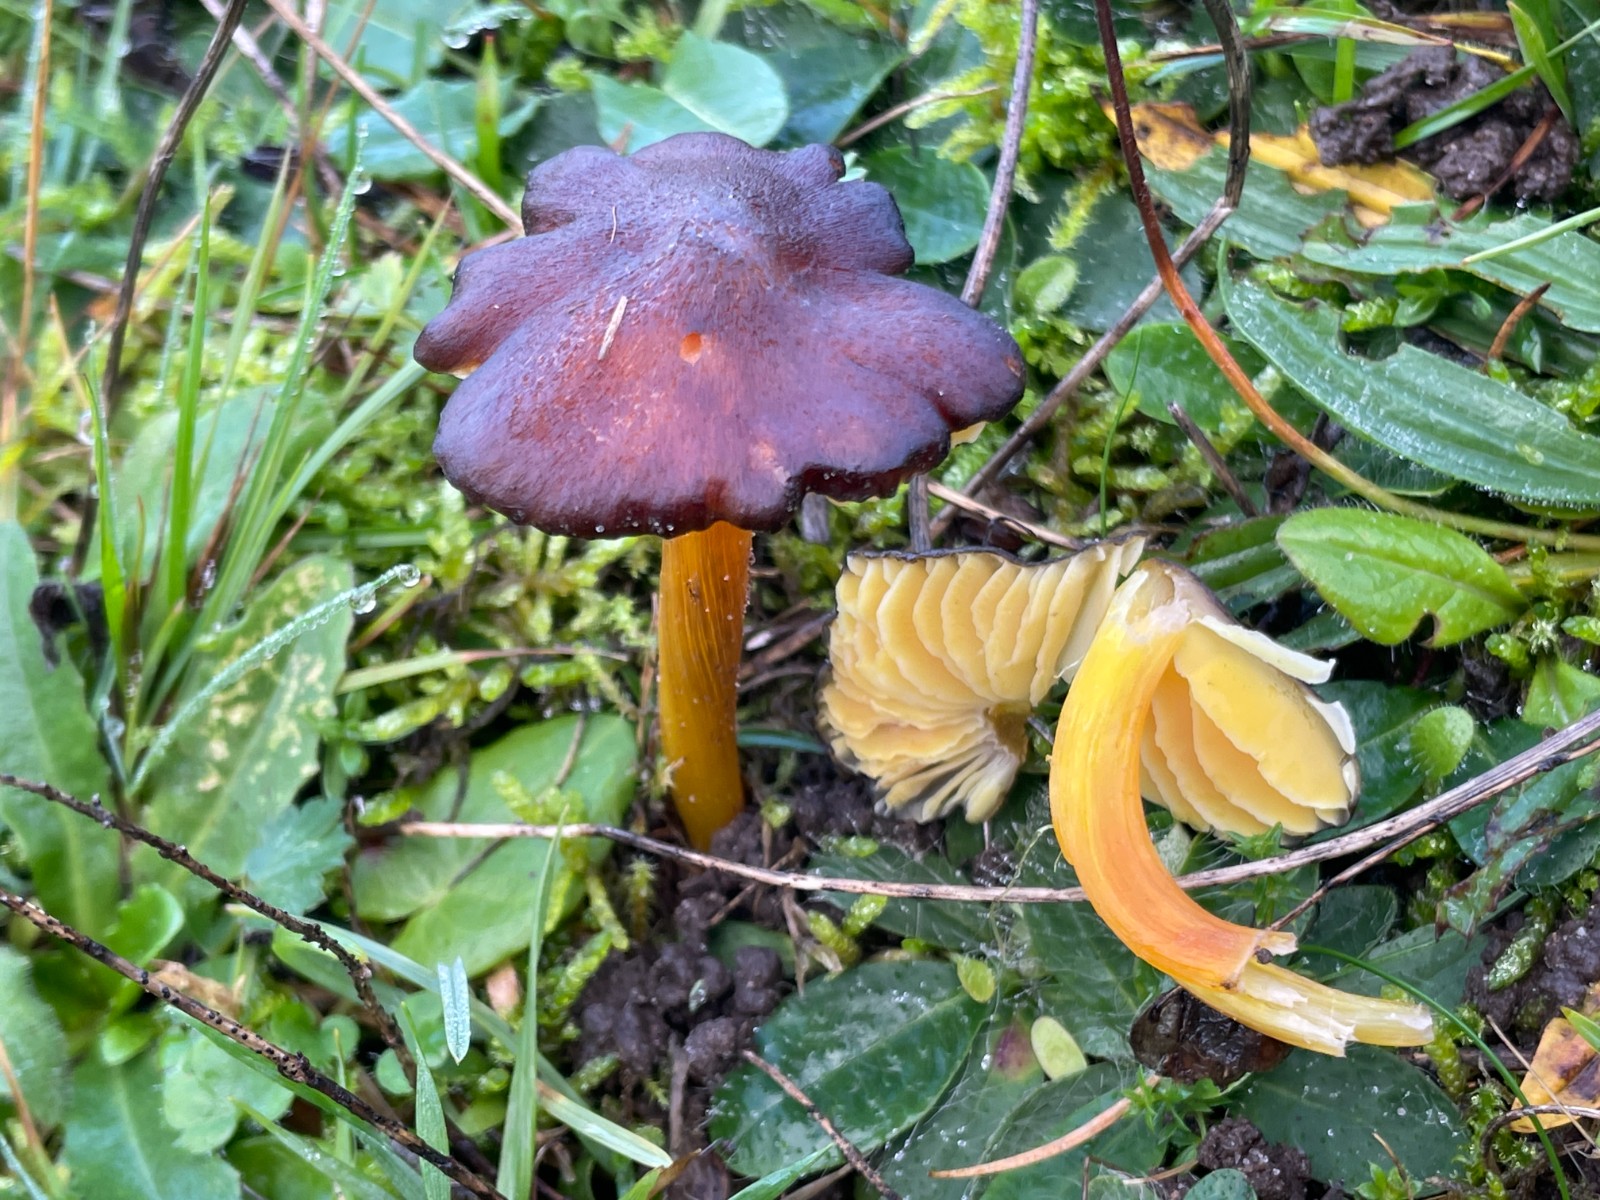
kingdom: Fungi
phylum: Basidiomycota
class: Agaricomycetes
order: Agaricales
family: Hygrophoraceae
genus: Hygrocybe
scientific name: Hygrocybe spadicea
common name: daddelbrun vokshat
